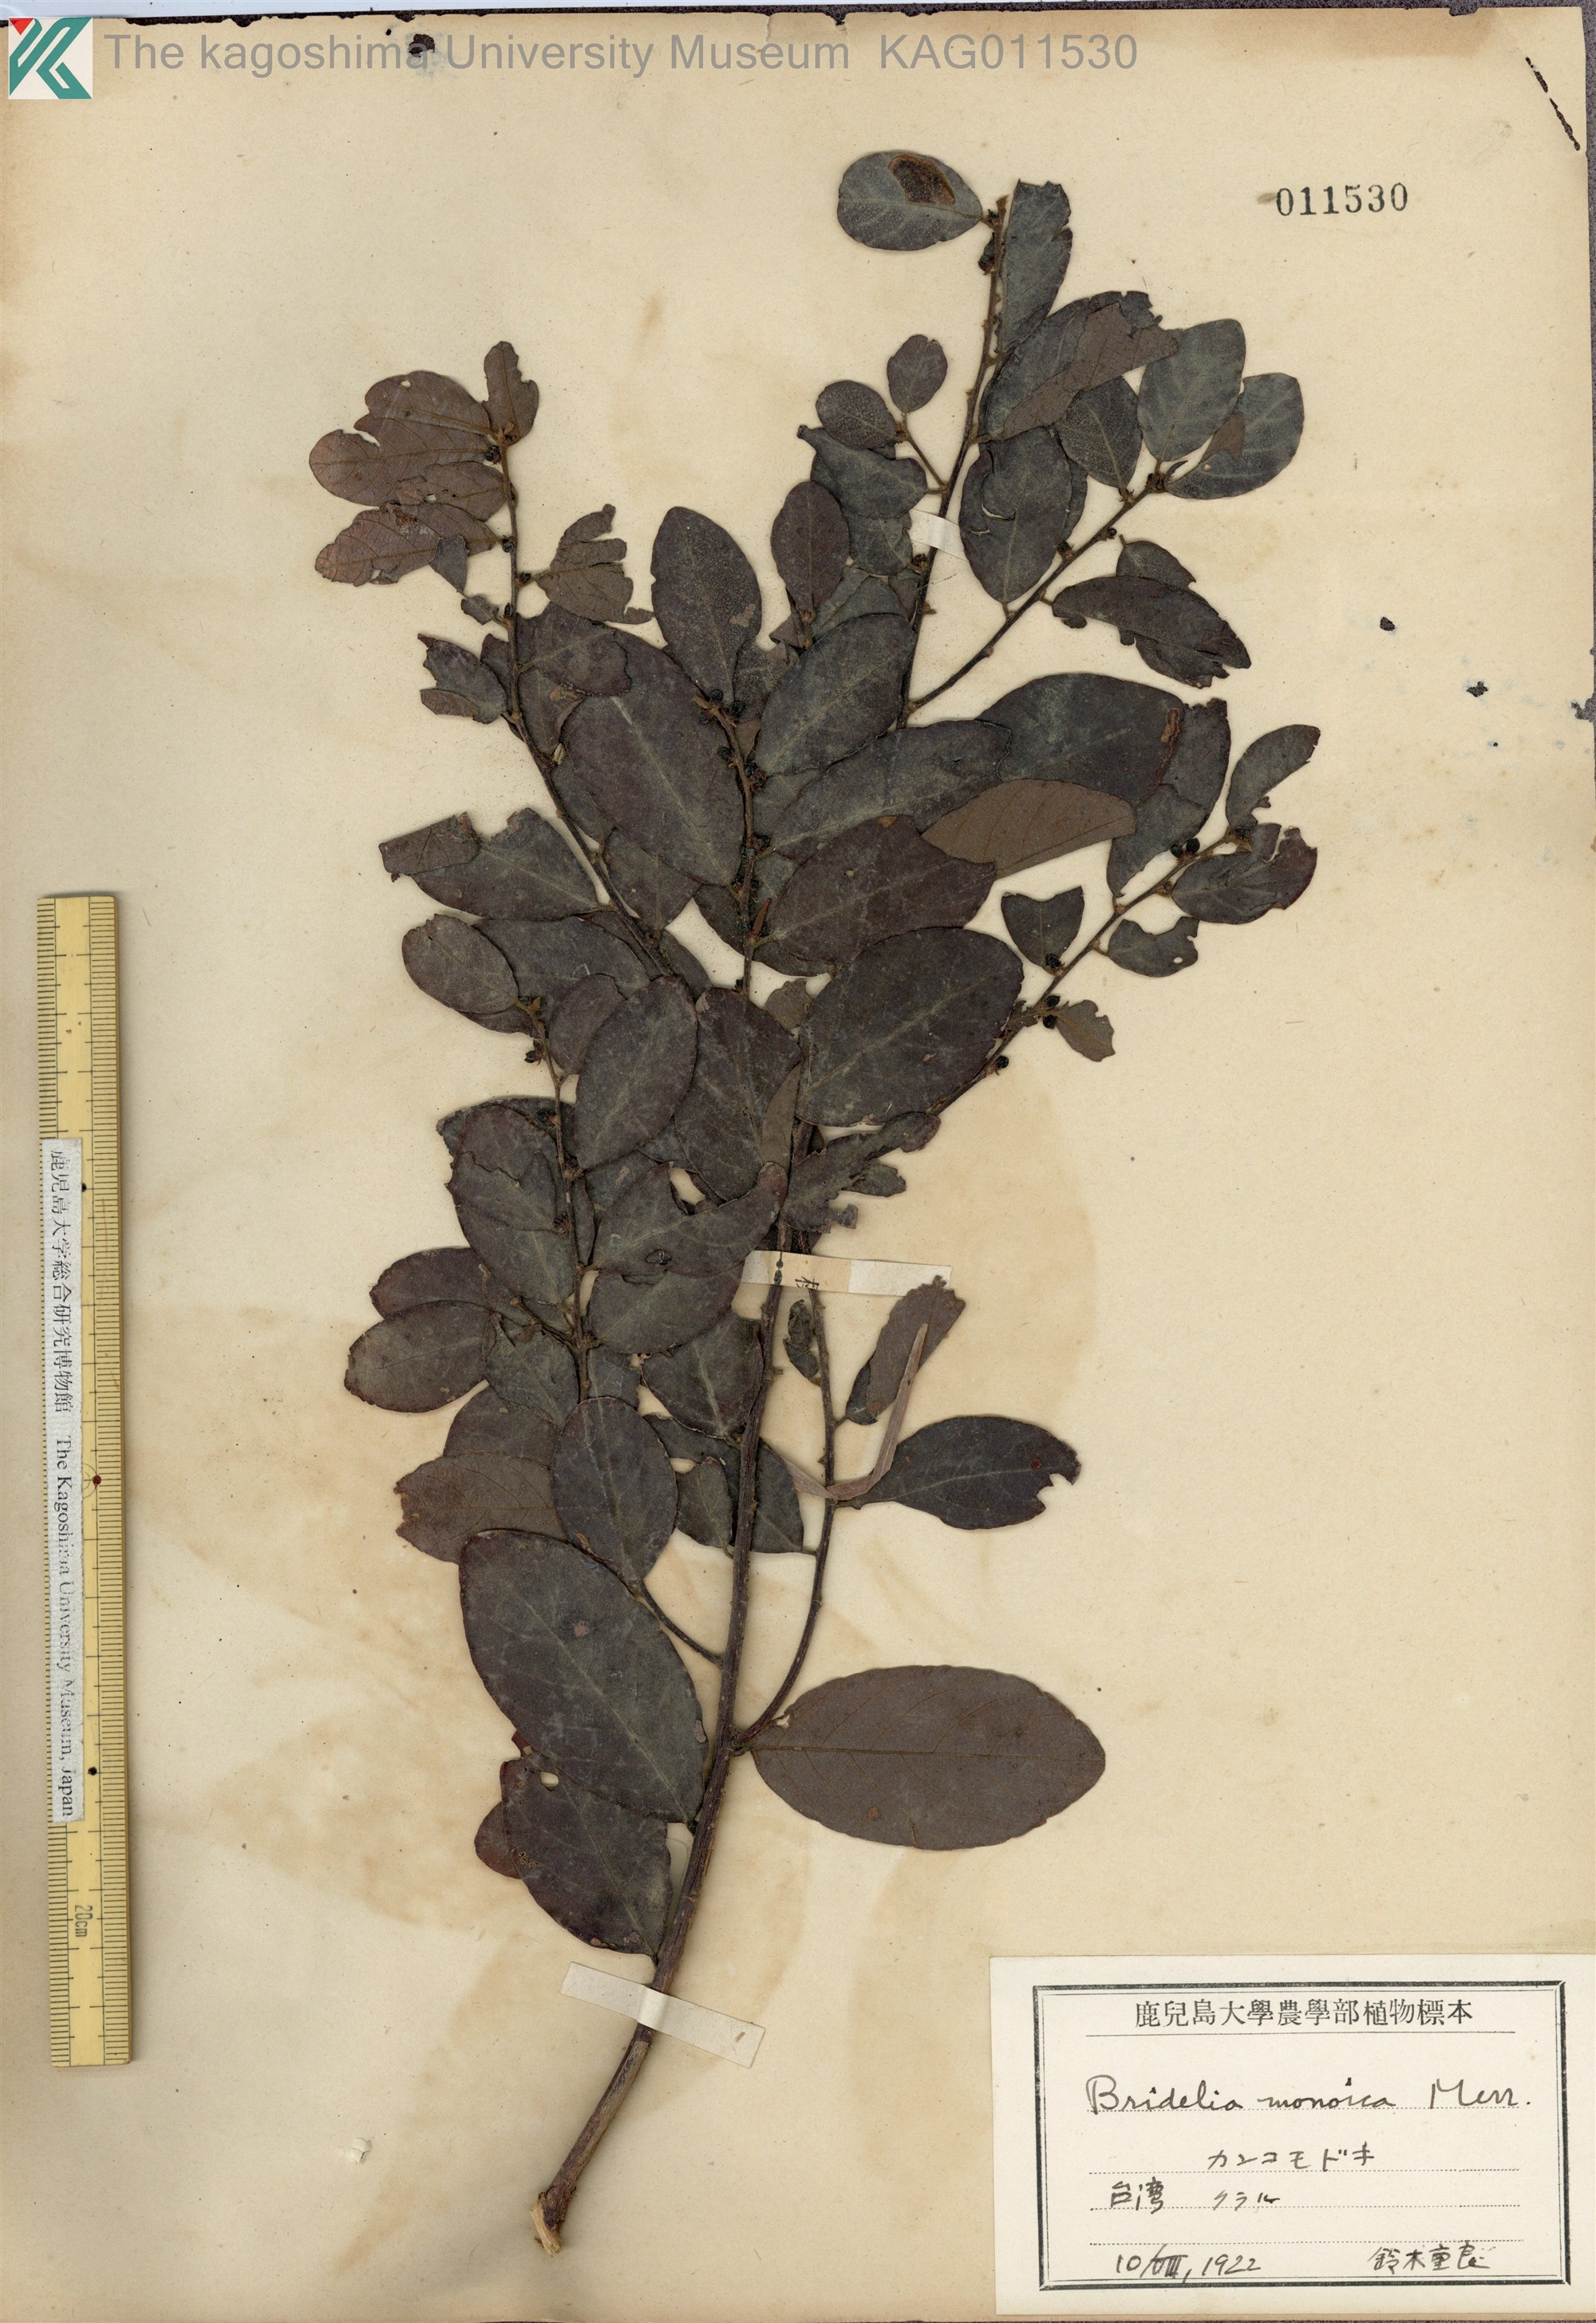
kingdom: Plantae
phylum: Tracheophyta
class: Magnoliopsida
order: Malpighiales
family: Phyllanthaceae
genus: Cleistanthus
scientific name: Cleistanthus monoicus
